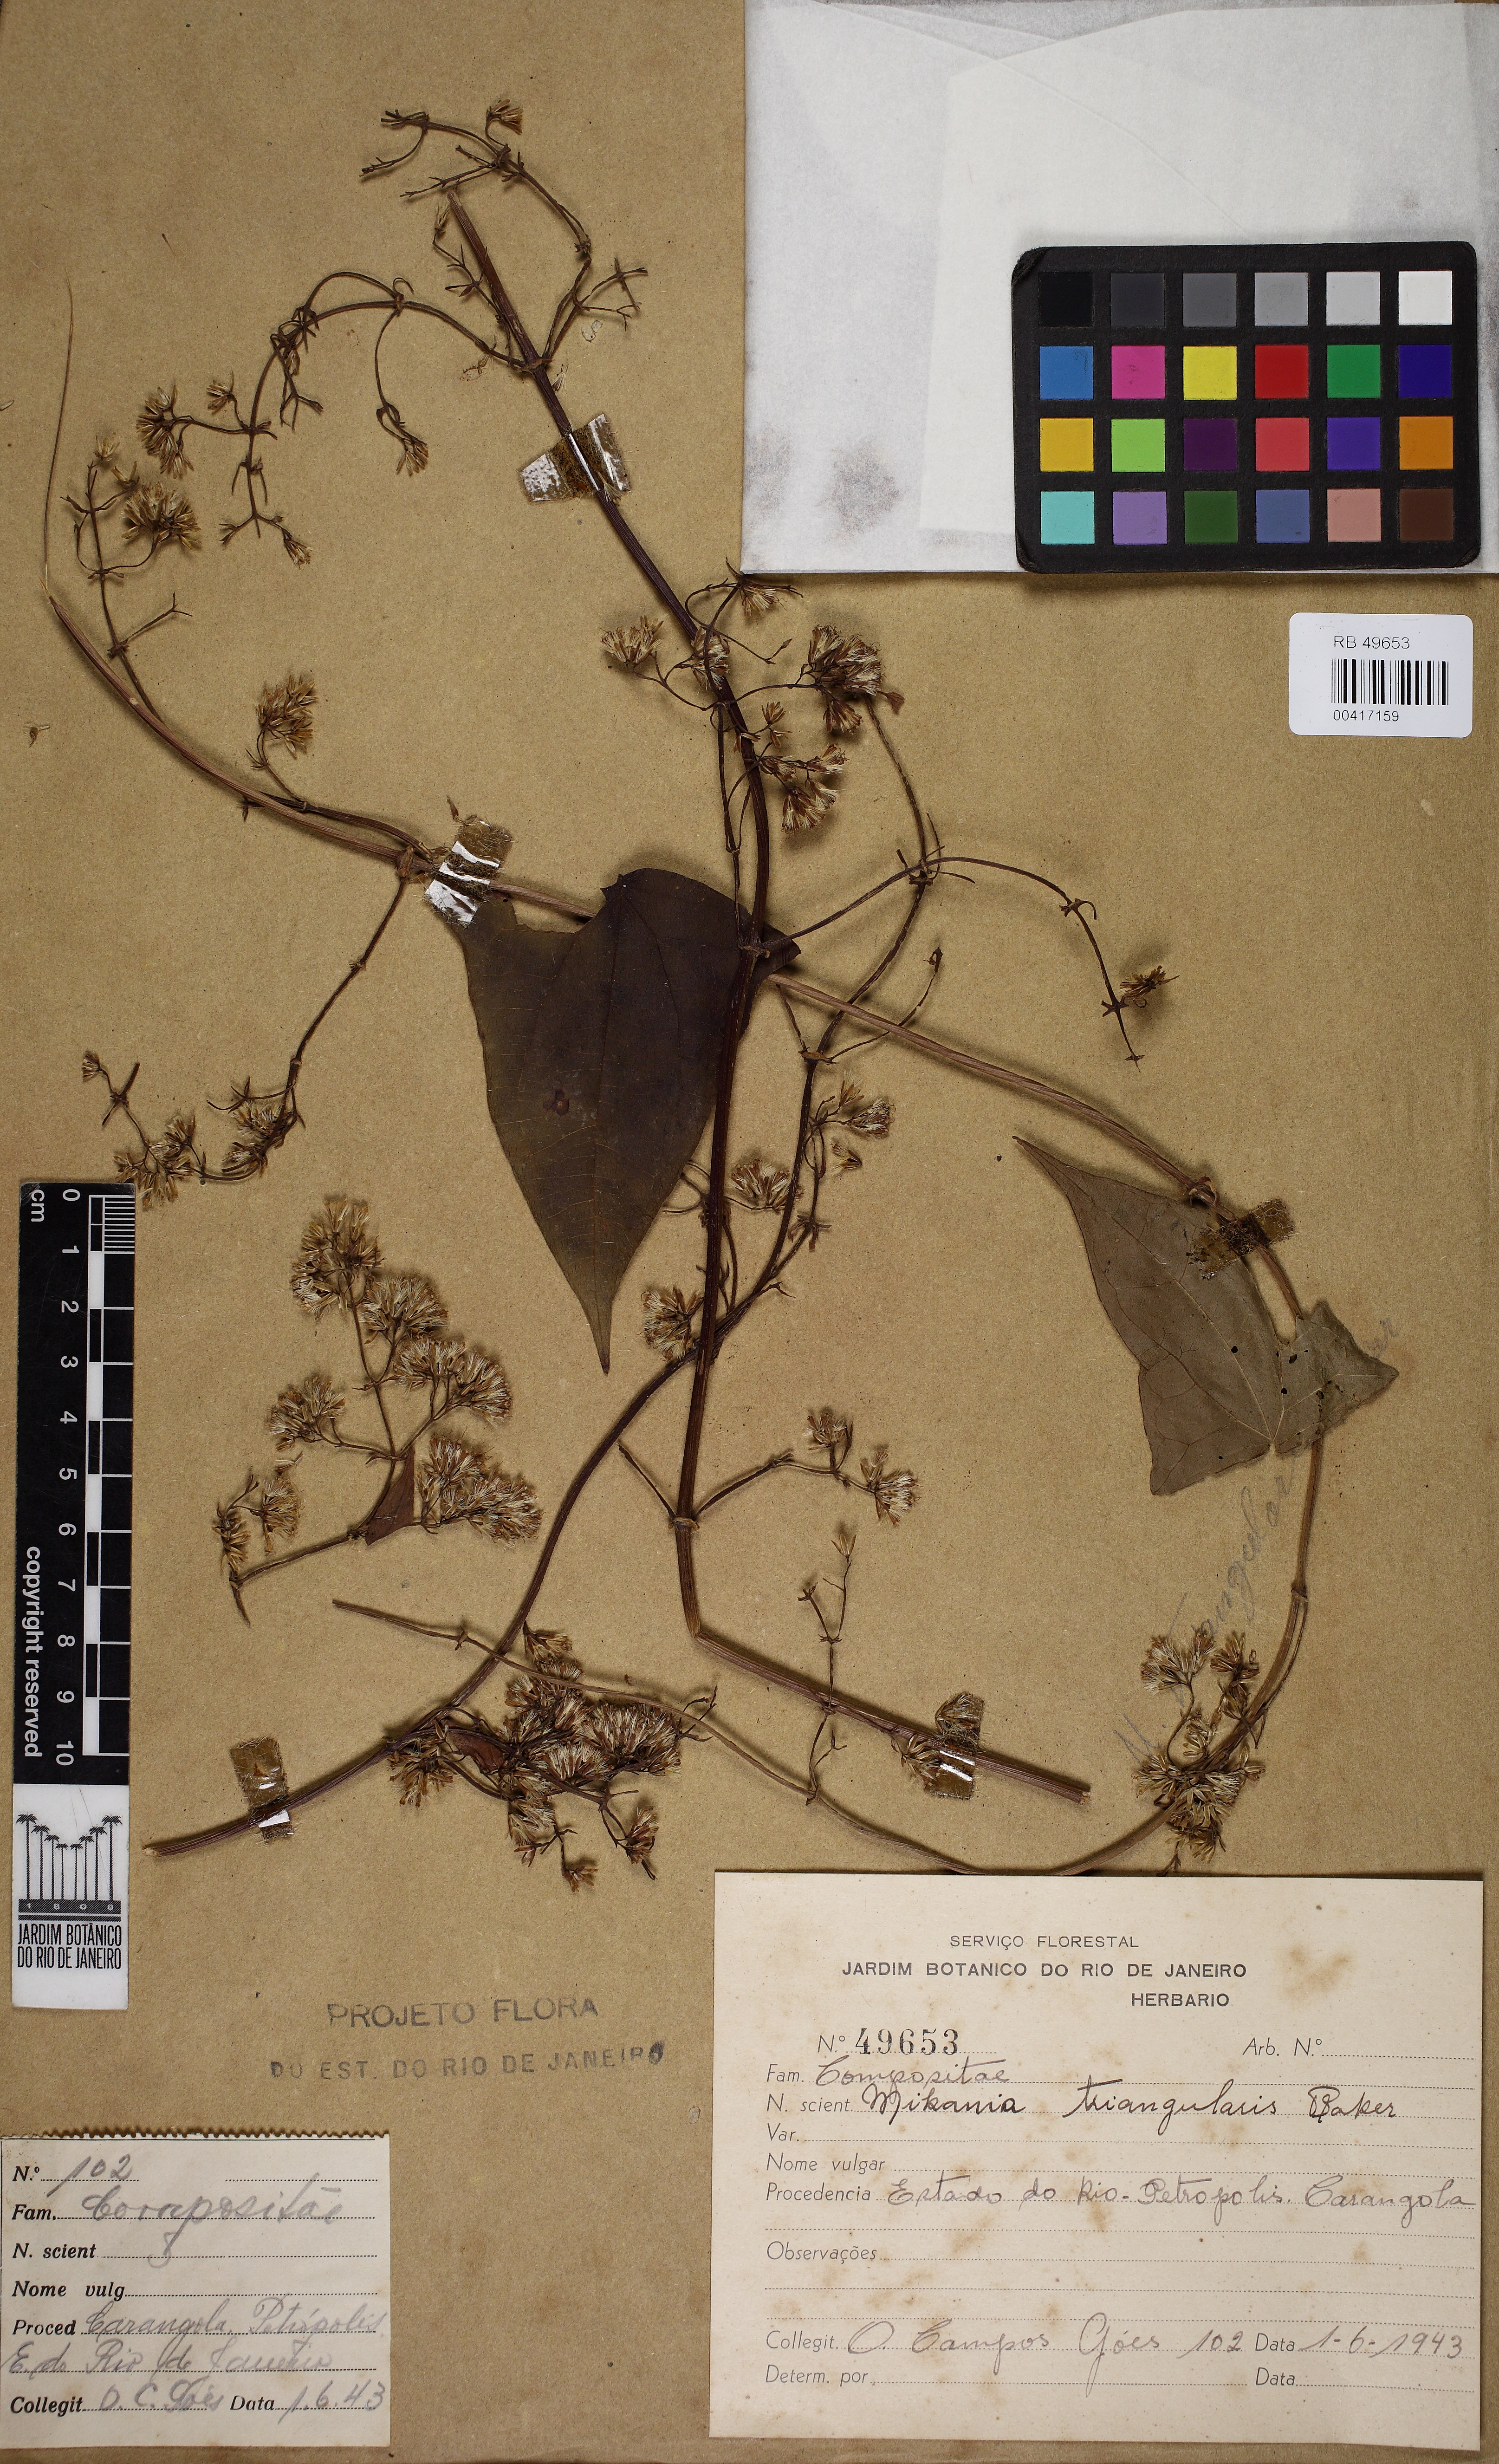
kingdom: Plantae
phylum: Tracheophyta
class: Magnoliopsida
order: Asterales
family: Asteraceae
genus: Mikania
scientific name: Mikania triangularis
